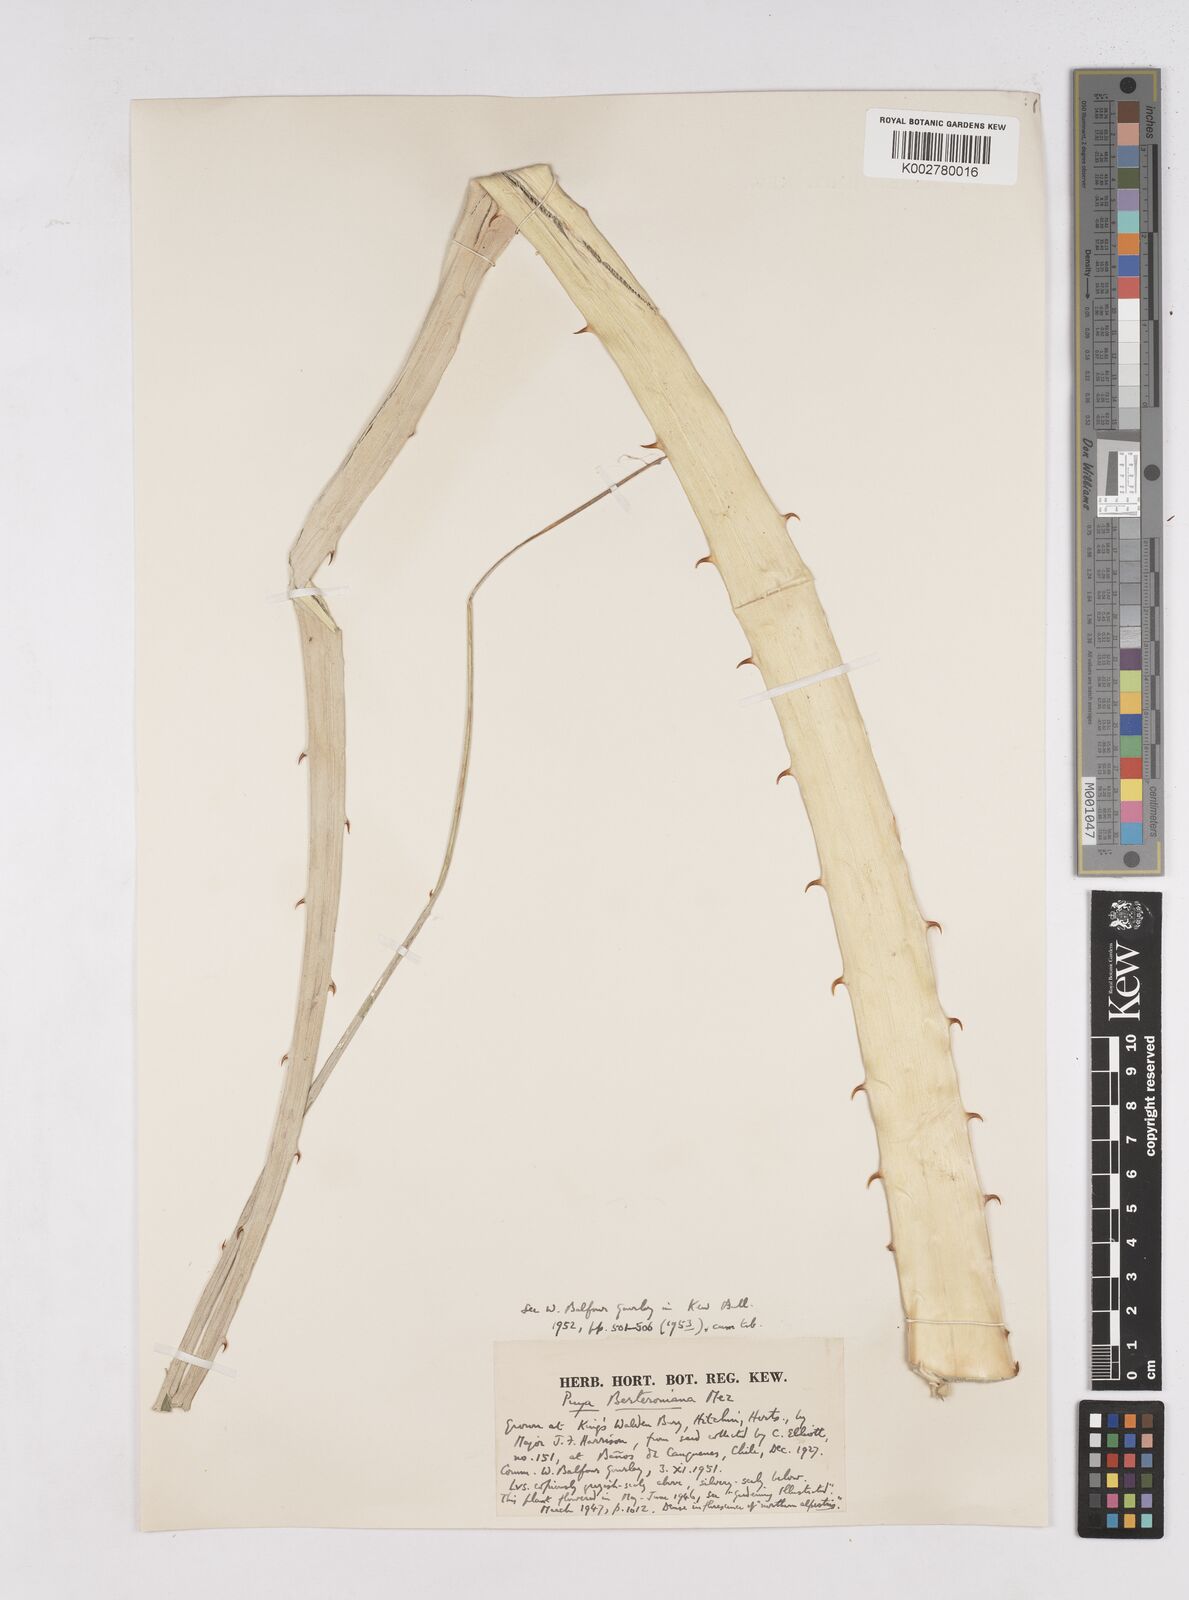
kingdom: Plantae
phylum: Tracheophyta
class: Liliopsida
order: Poales
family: Bromeliaceae
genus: Puya
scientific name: Puya berteroniana
